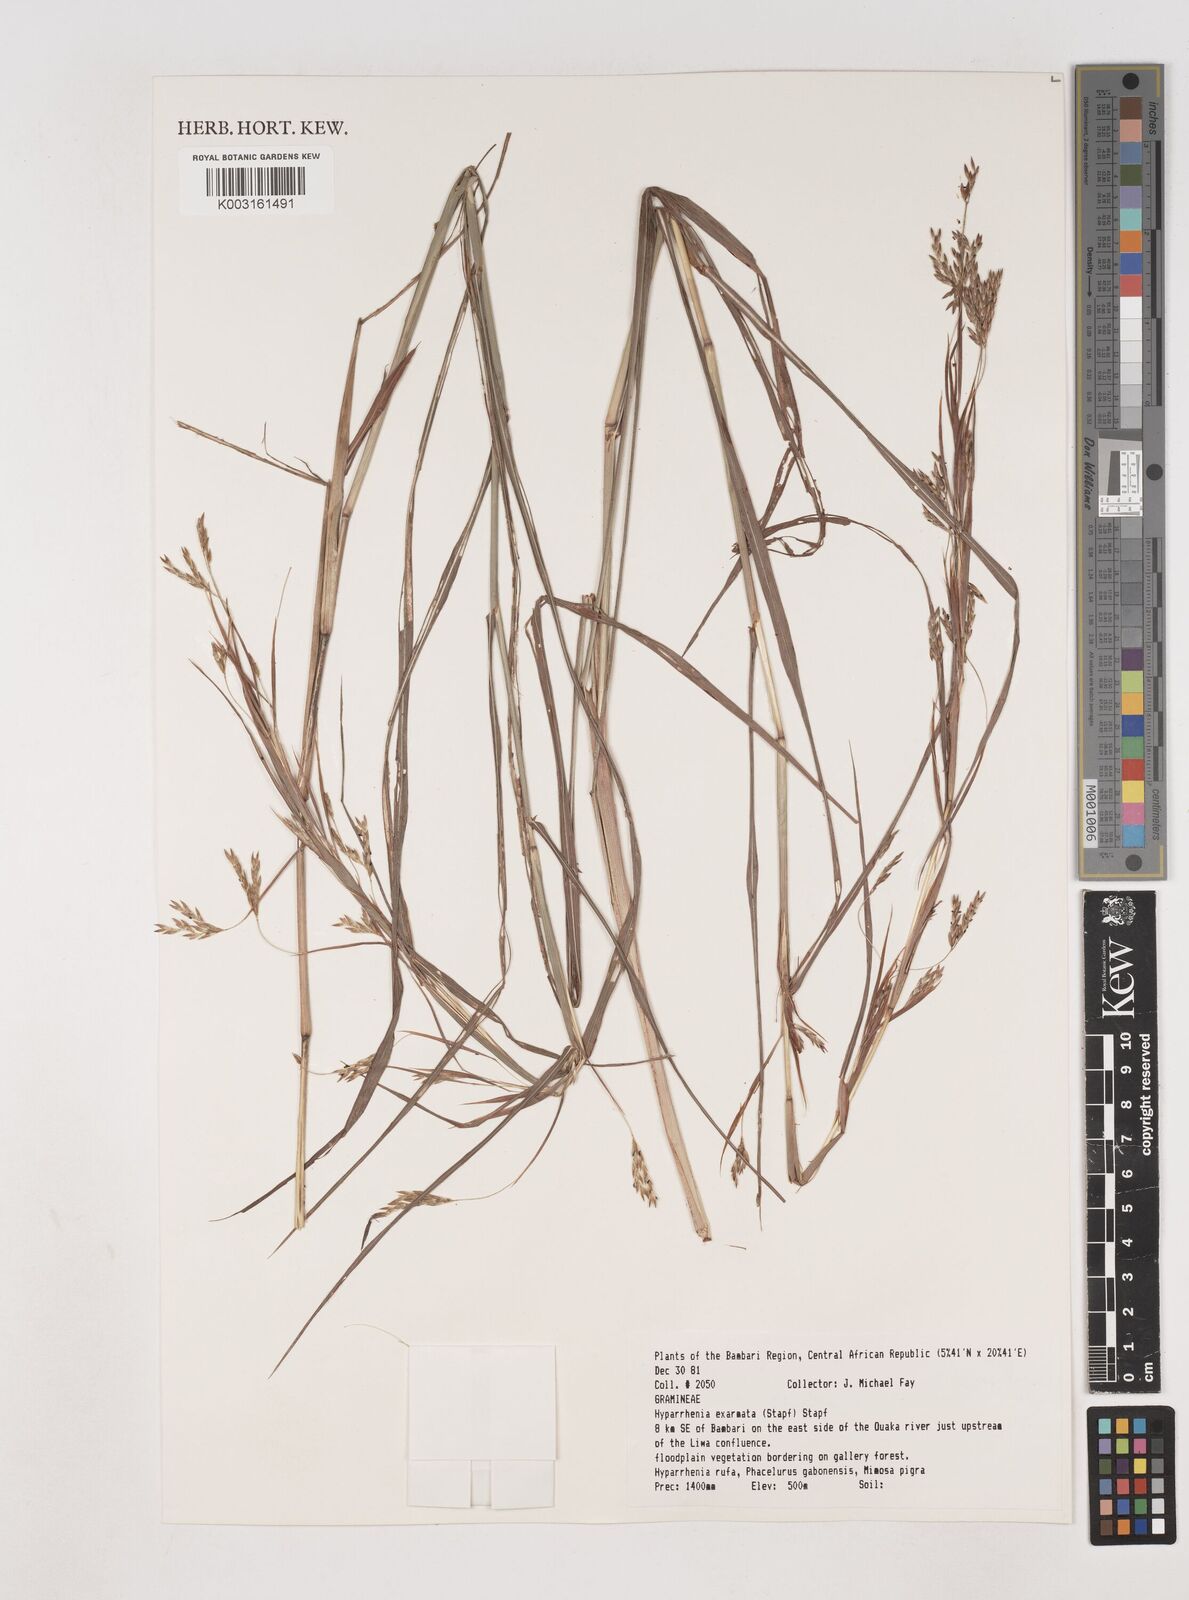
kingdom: Plantae
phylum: Tracheophyta
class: Liliopsida
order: Poales
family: Poaceae
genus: Hyparrhenia
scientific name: Hyparrhenia exarmata
